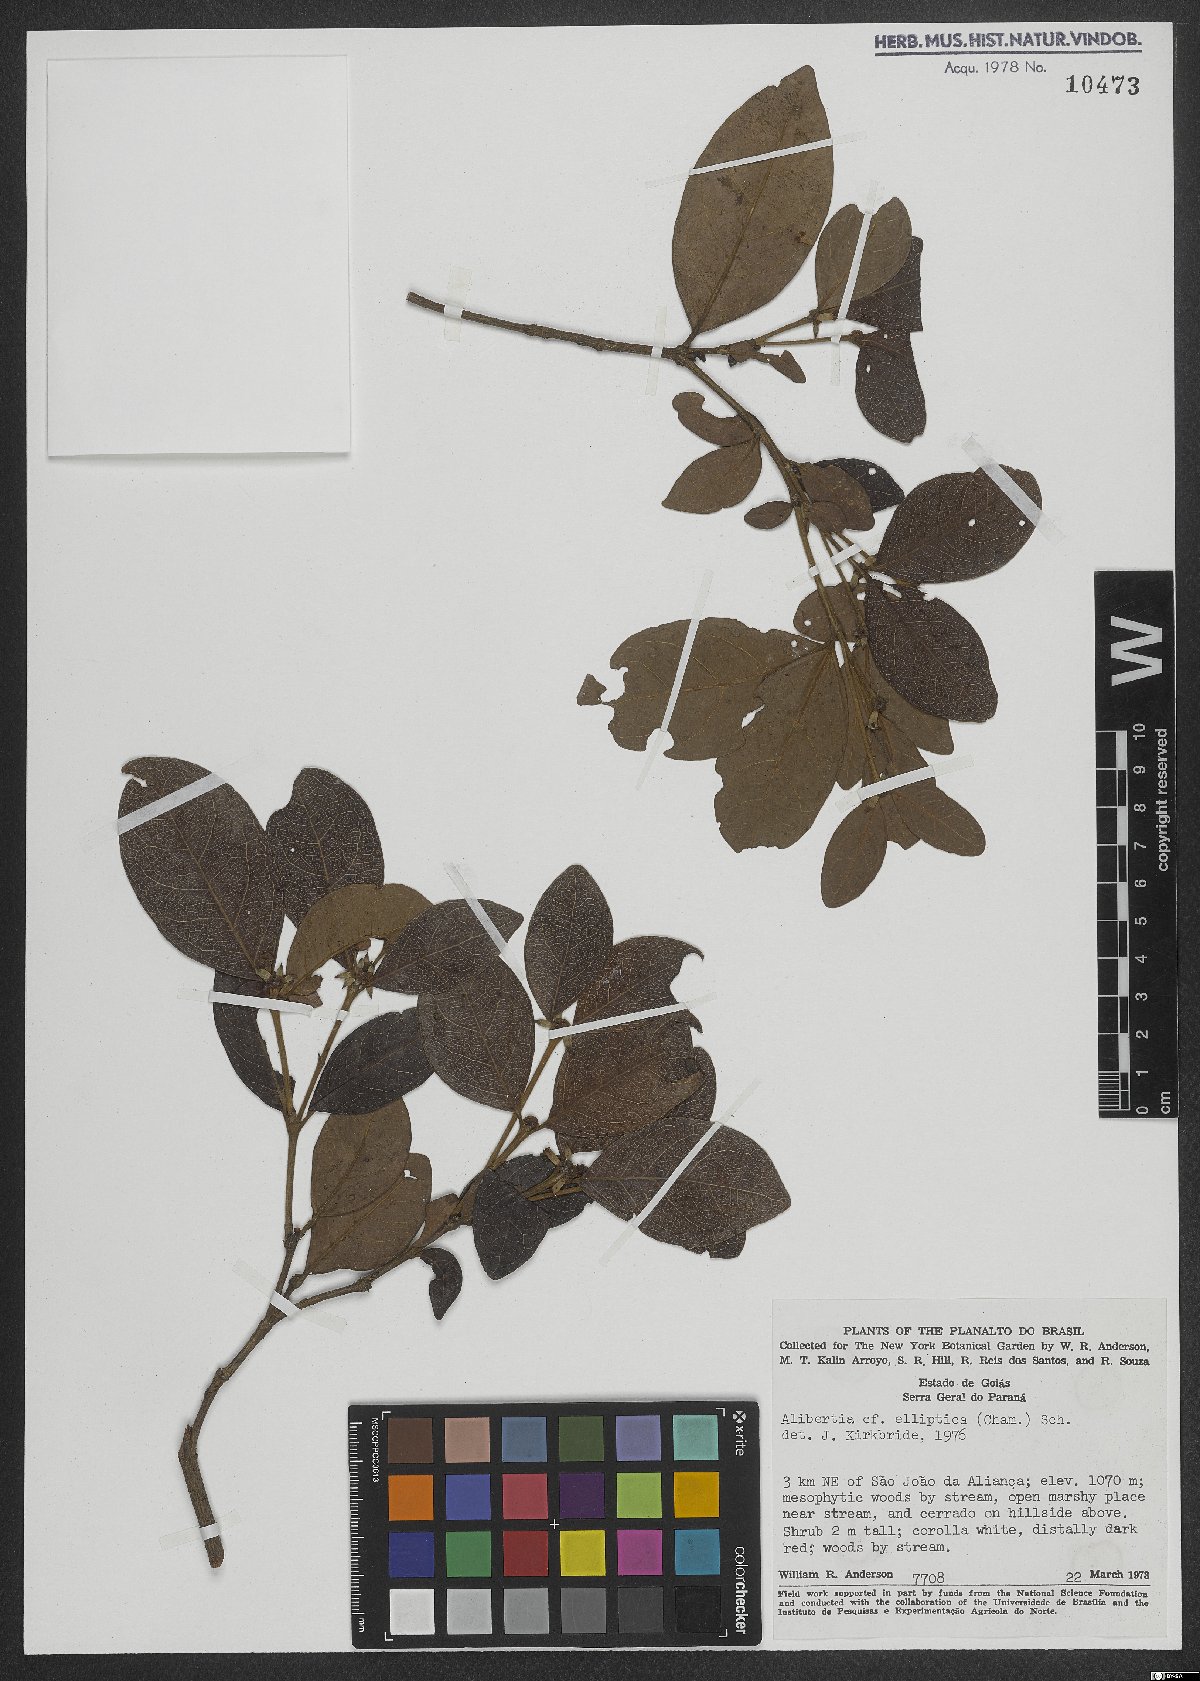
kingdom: Plantae
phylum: Tracheophyta
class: Magnoliopsida
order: Gentianales
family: Rubiaceae
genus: Cordiera
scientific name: Cordiera elliptica
